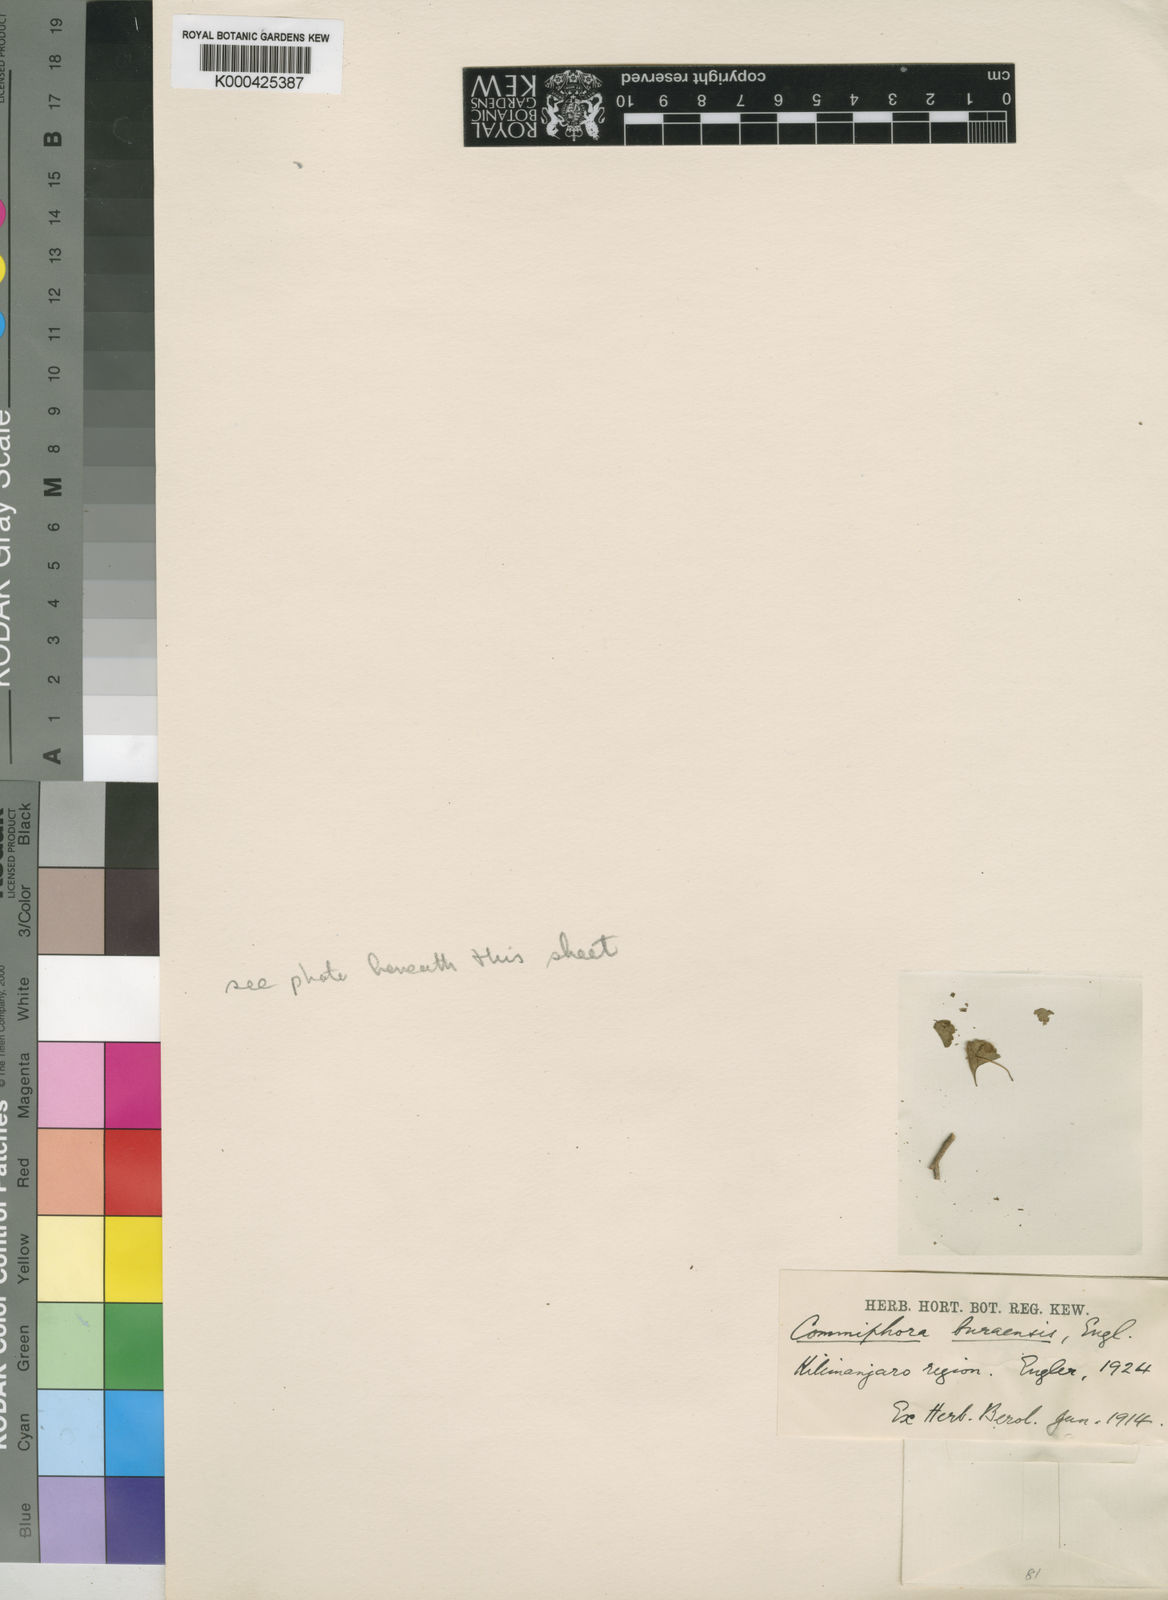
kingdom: Plantae
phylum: Tracheophyta
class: Magnoliopsida
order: Sapindales
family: Burseraceae
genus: Commiphora
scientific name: Commiphora schimperi
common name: Glossy-leaved corkwood
